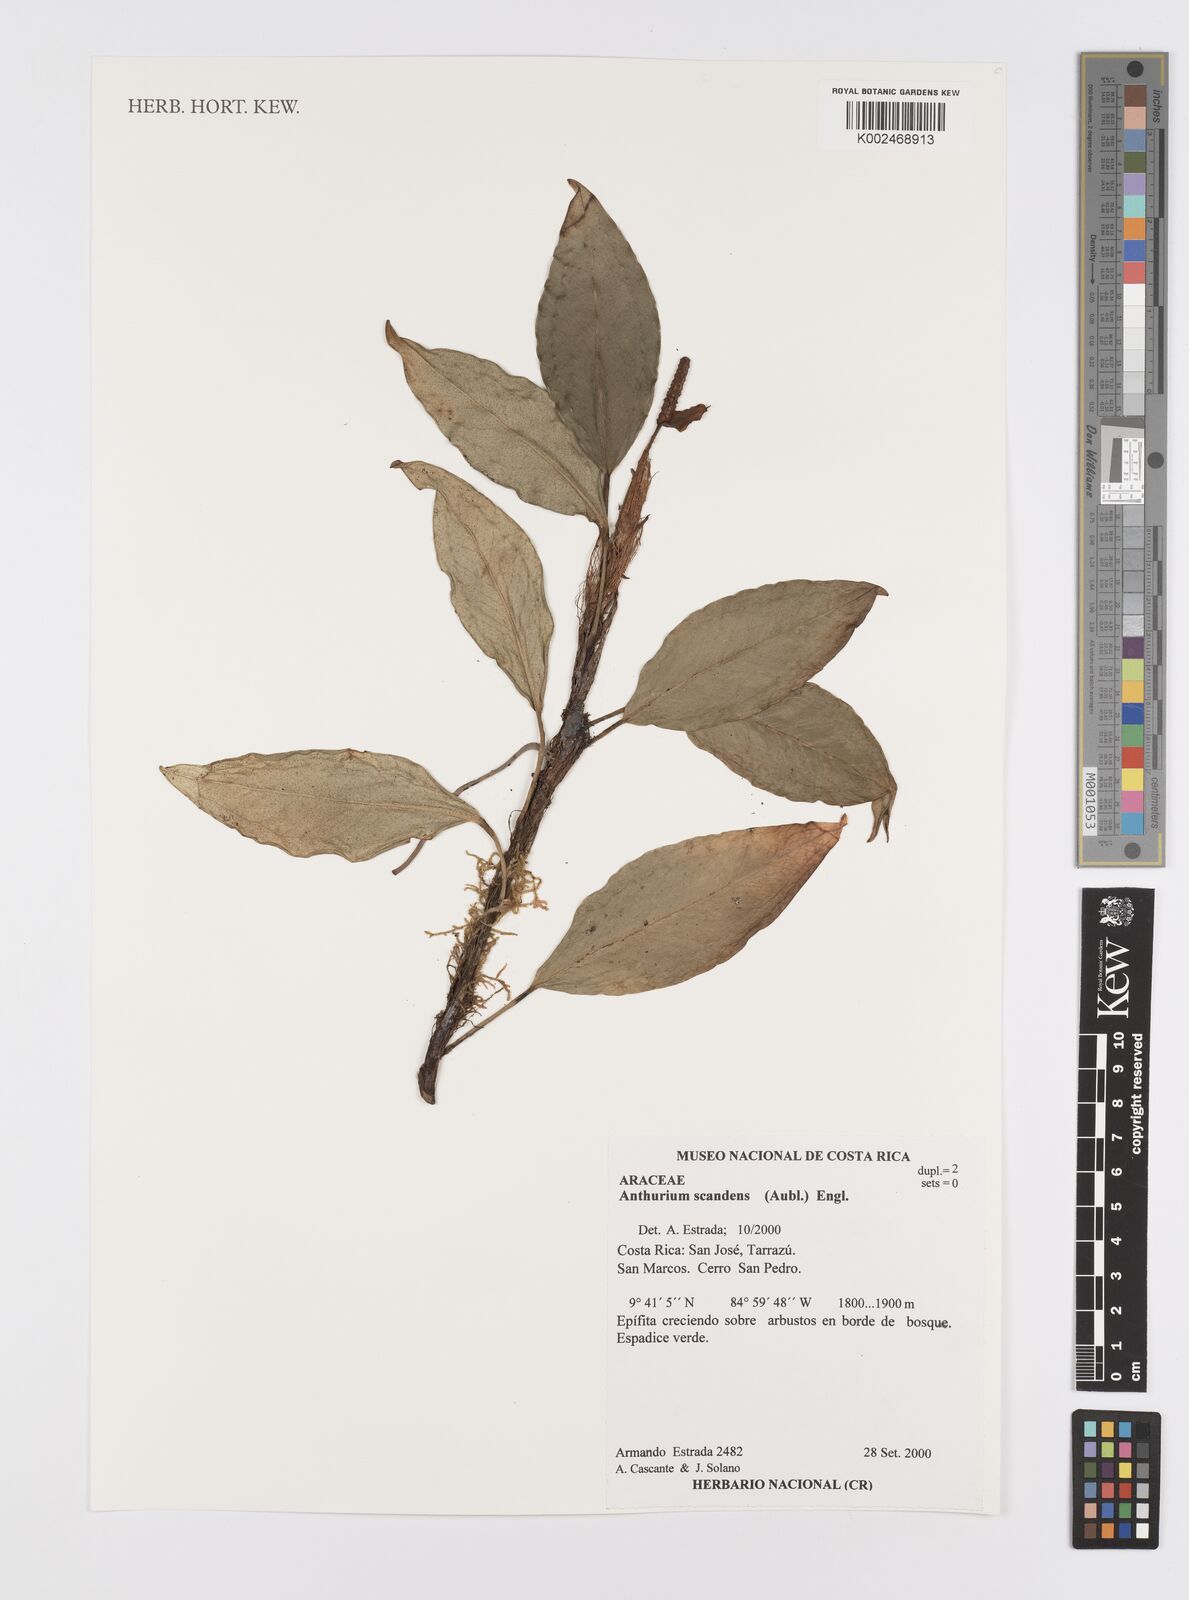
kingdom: Plantae
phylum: Tracheophyta
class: Liliopsida
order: Alismatales
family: Araceae
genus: Anthurium
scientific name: Anthurium scandens
